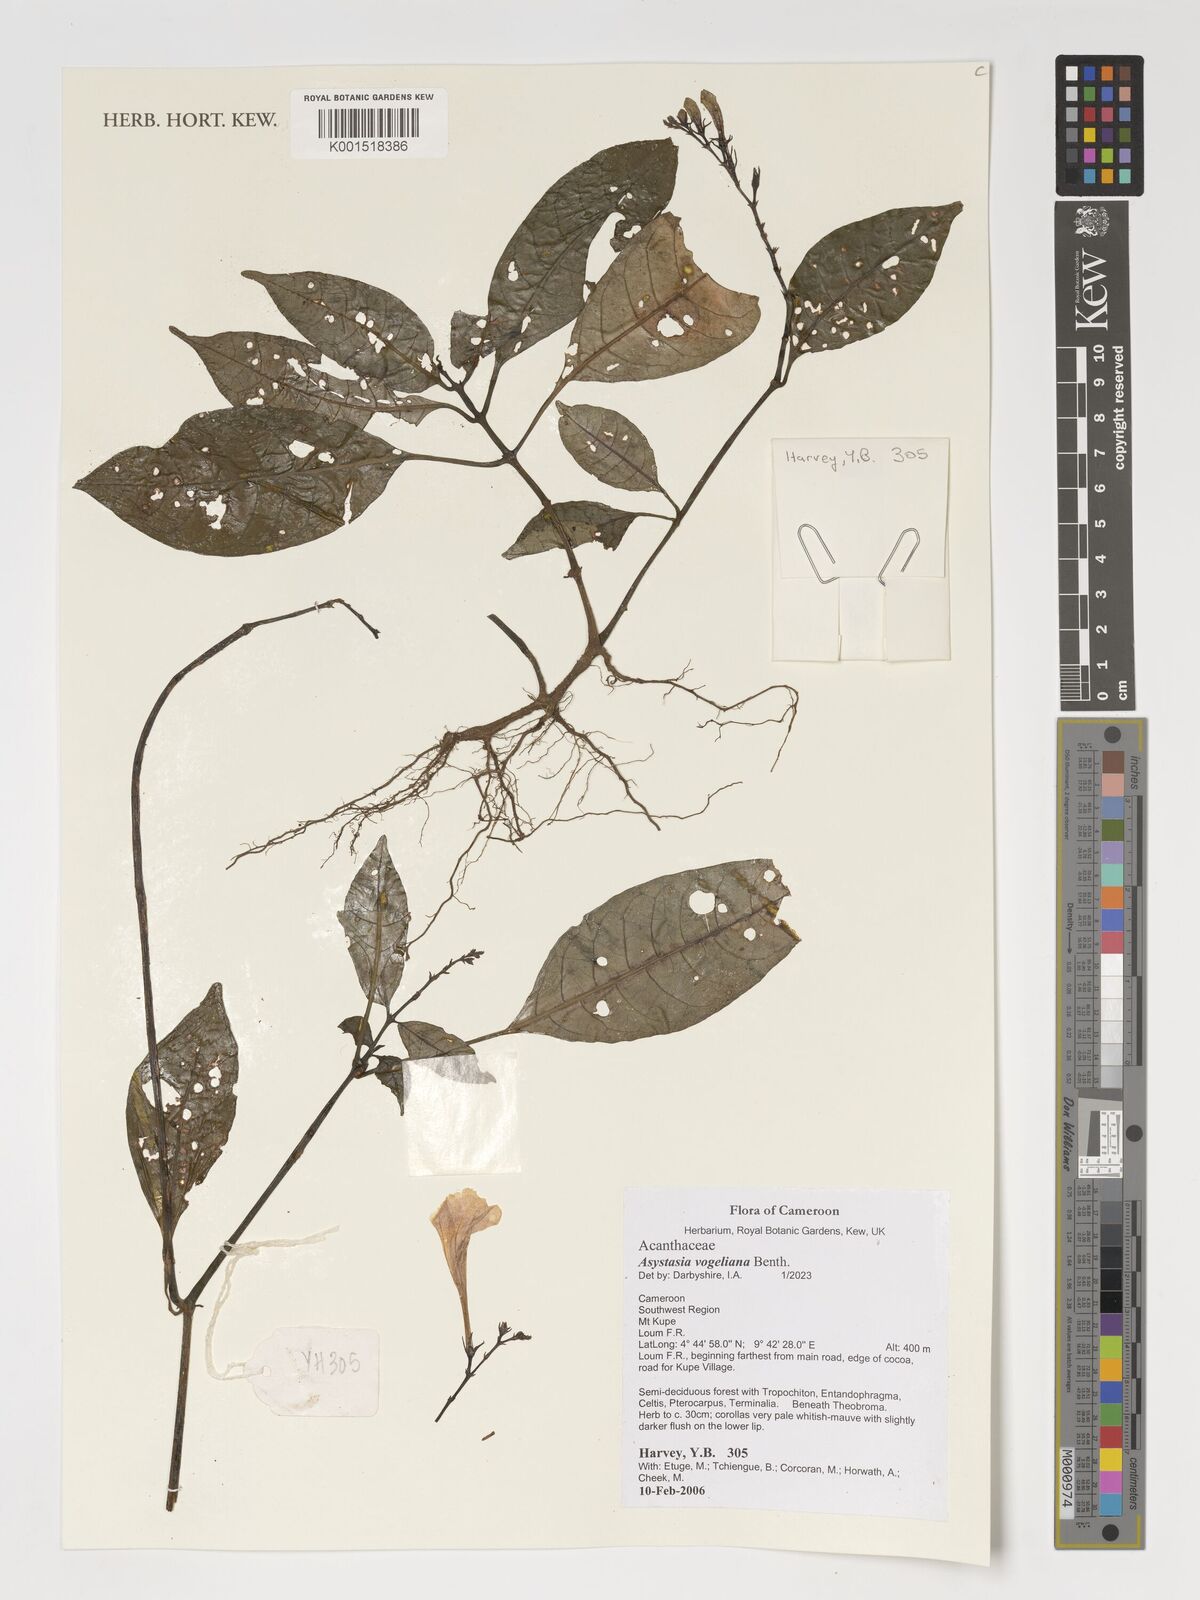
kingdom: Plantae
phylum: Tracheophyta
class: Magnoliopsida
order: Lamiales
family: Acanthaceae
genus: Asystasia
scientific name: Asystasia vogeliana
